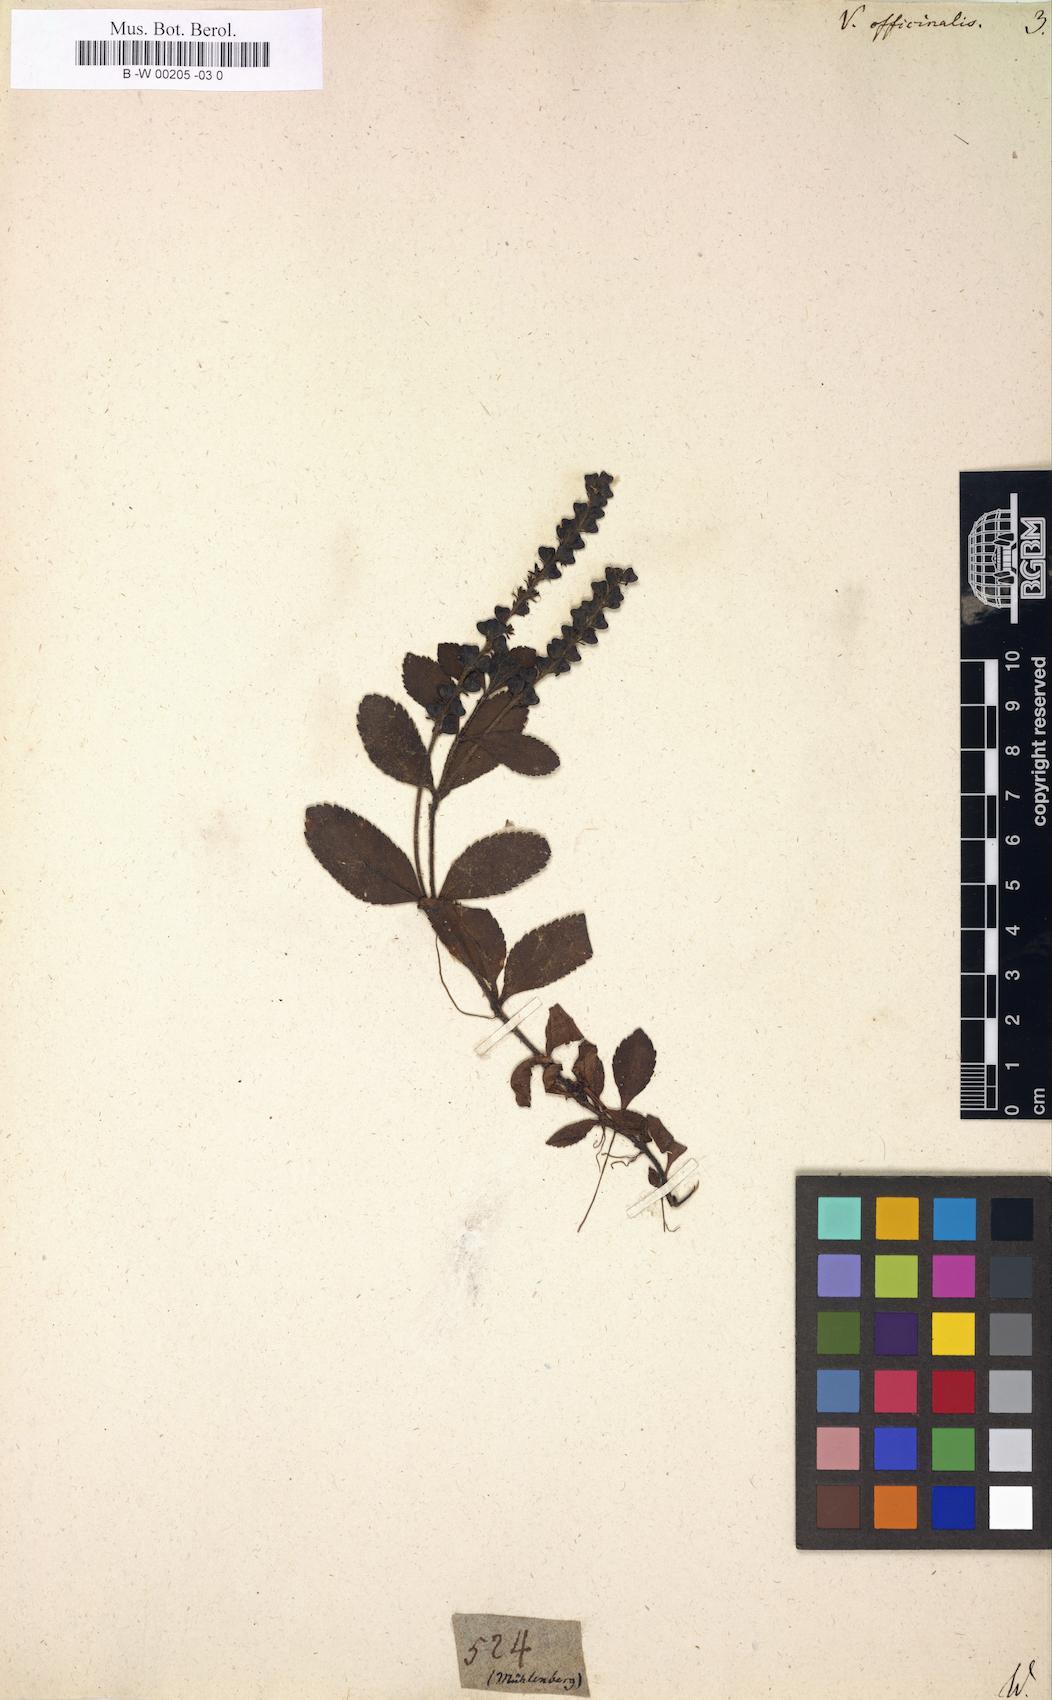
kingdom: Plantae
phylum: Tracheophyta
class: Magnoliopsida
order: Lamiales
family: Plantaginaceae
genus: Veronica
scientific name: Veronica officinalis
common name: Common speedwell
